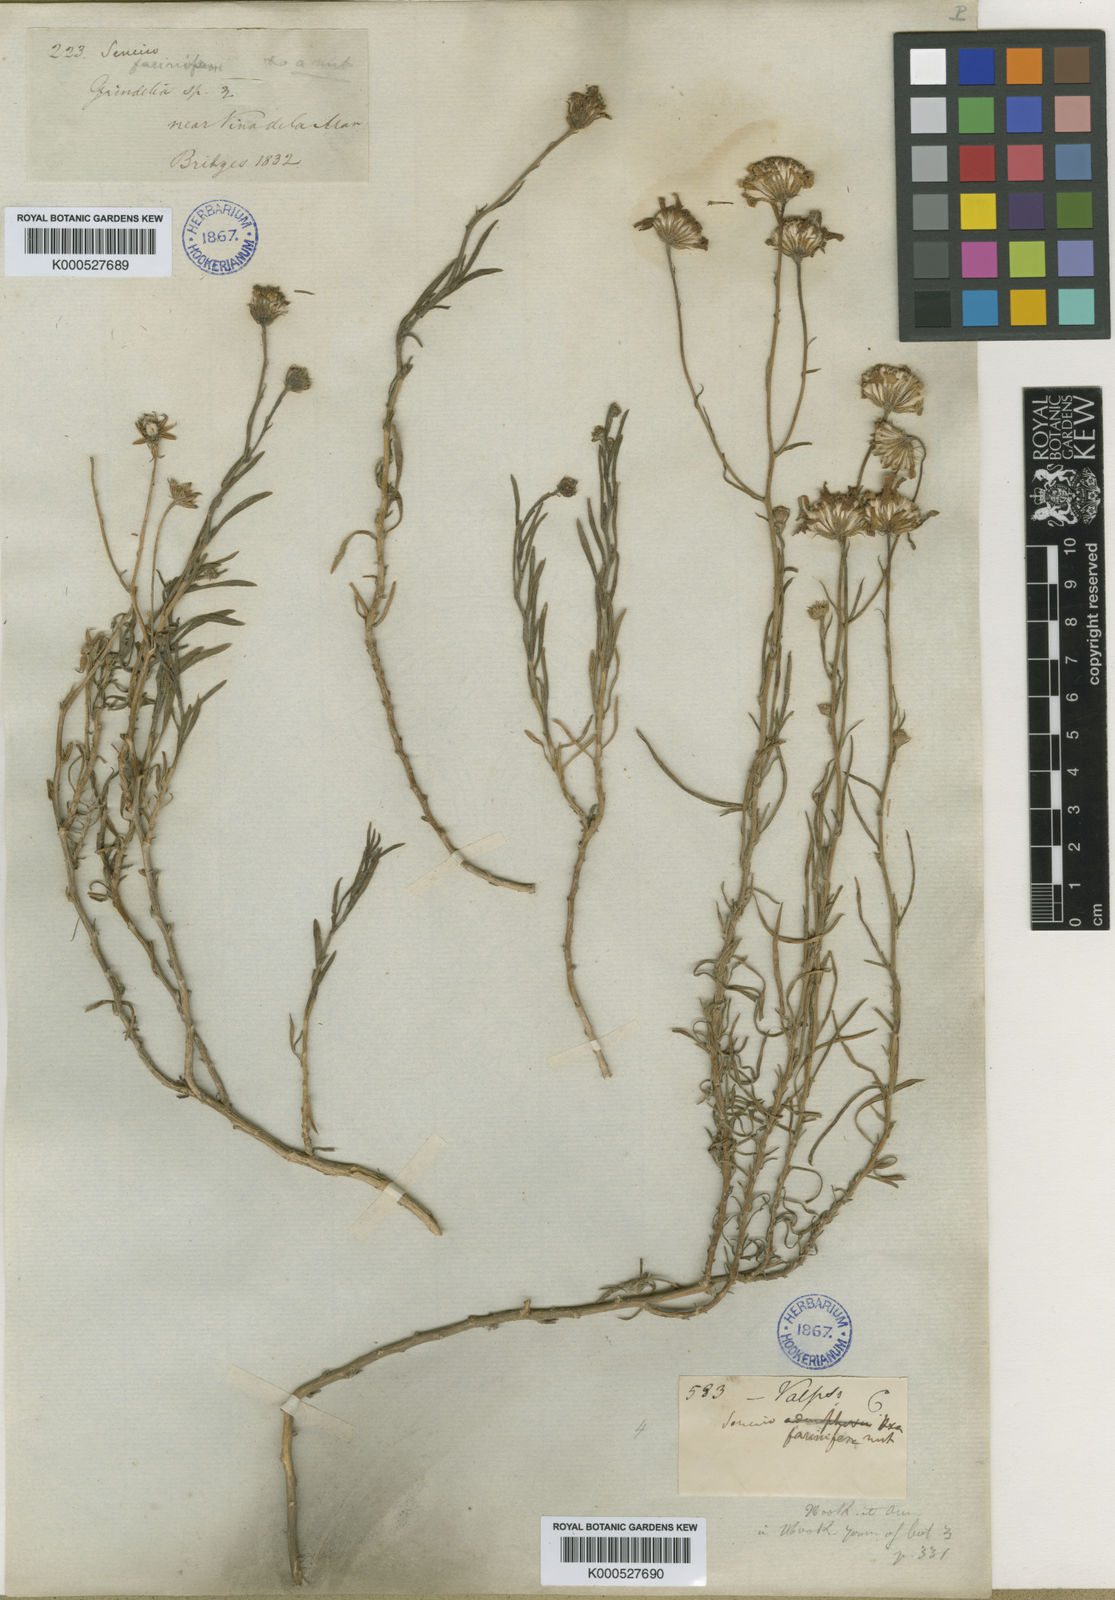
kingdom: Plantae
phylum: Tracheophyta
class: Magnoliopsida
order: Asterales
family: Asteraceae
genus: Senecio
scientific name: Senecio farinifer
